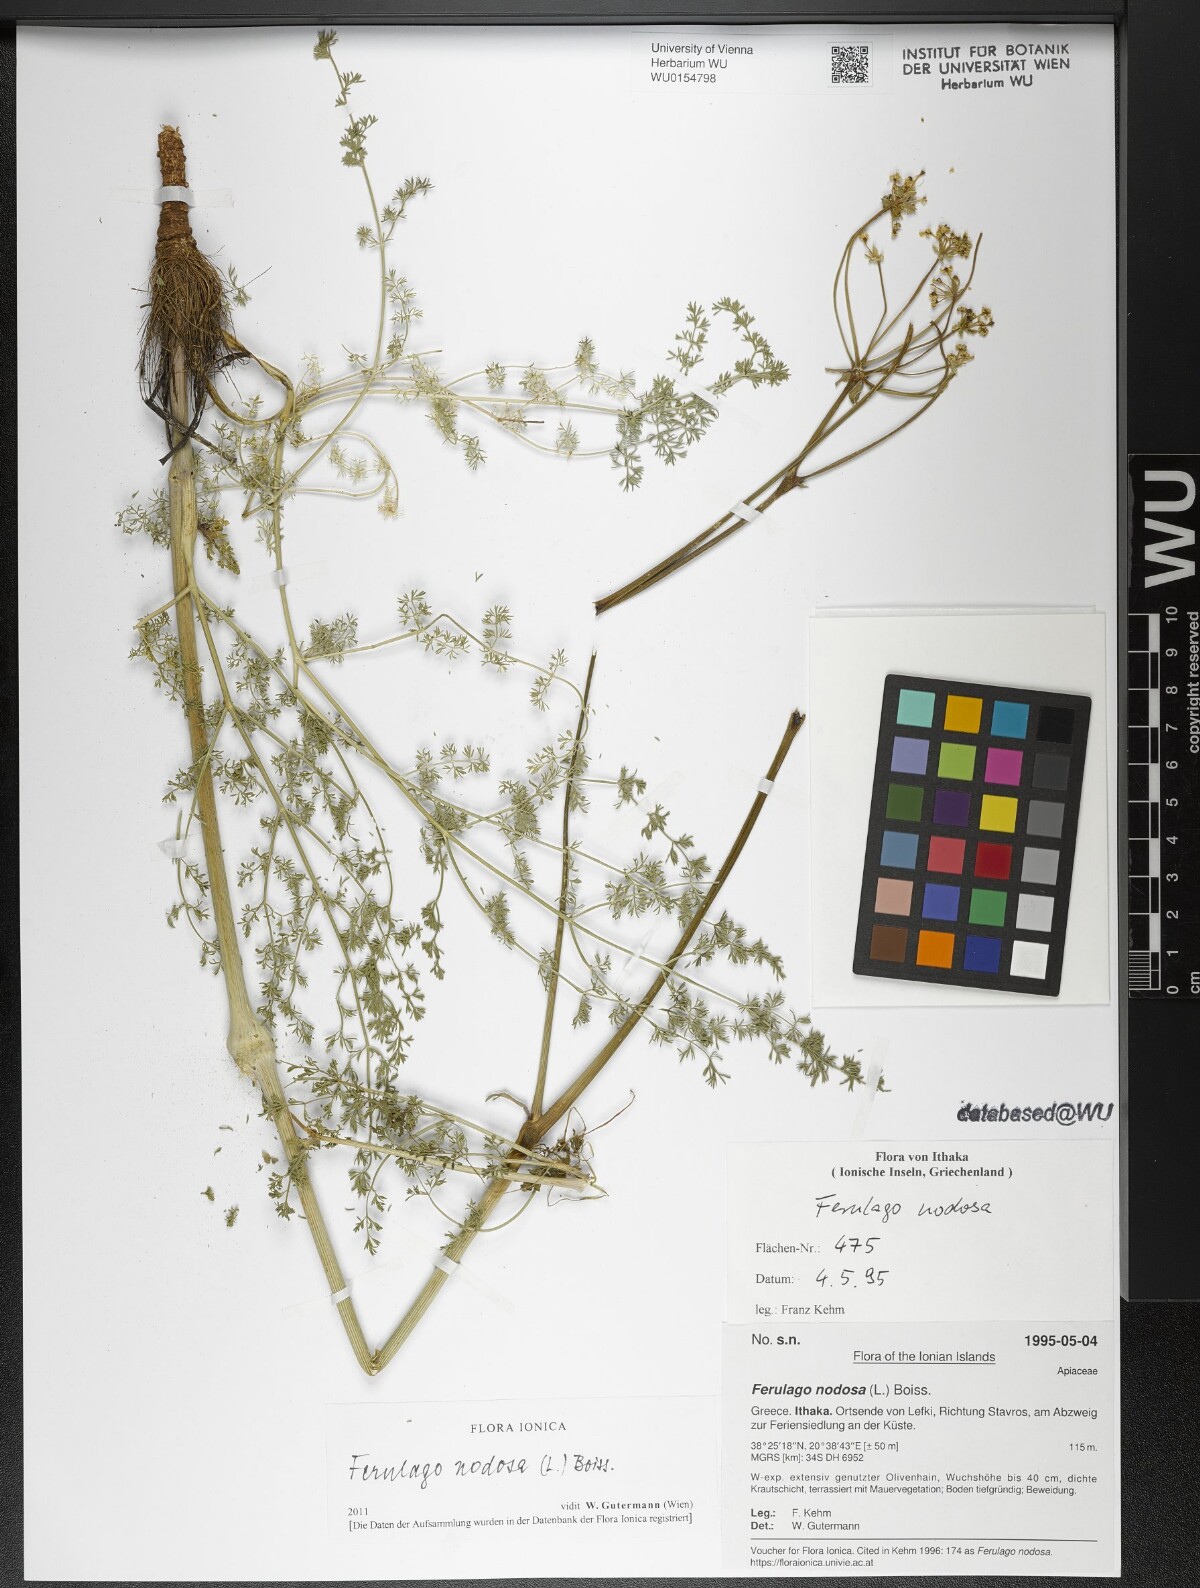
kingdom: Plantae
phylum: Tracheophyta
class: Magnoliopsida
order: Apiales
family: Apiaceae
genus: Ferulago
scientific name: Ferulago nodosa
